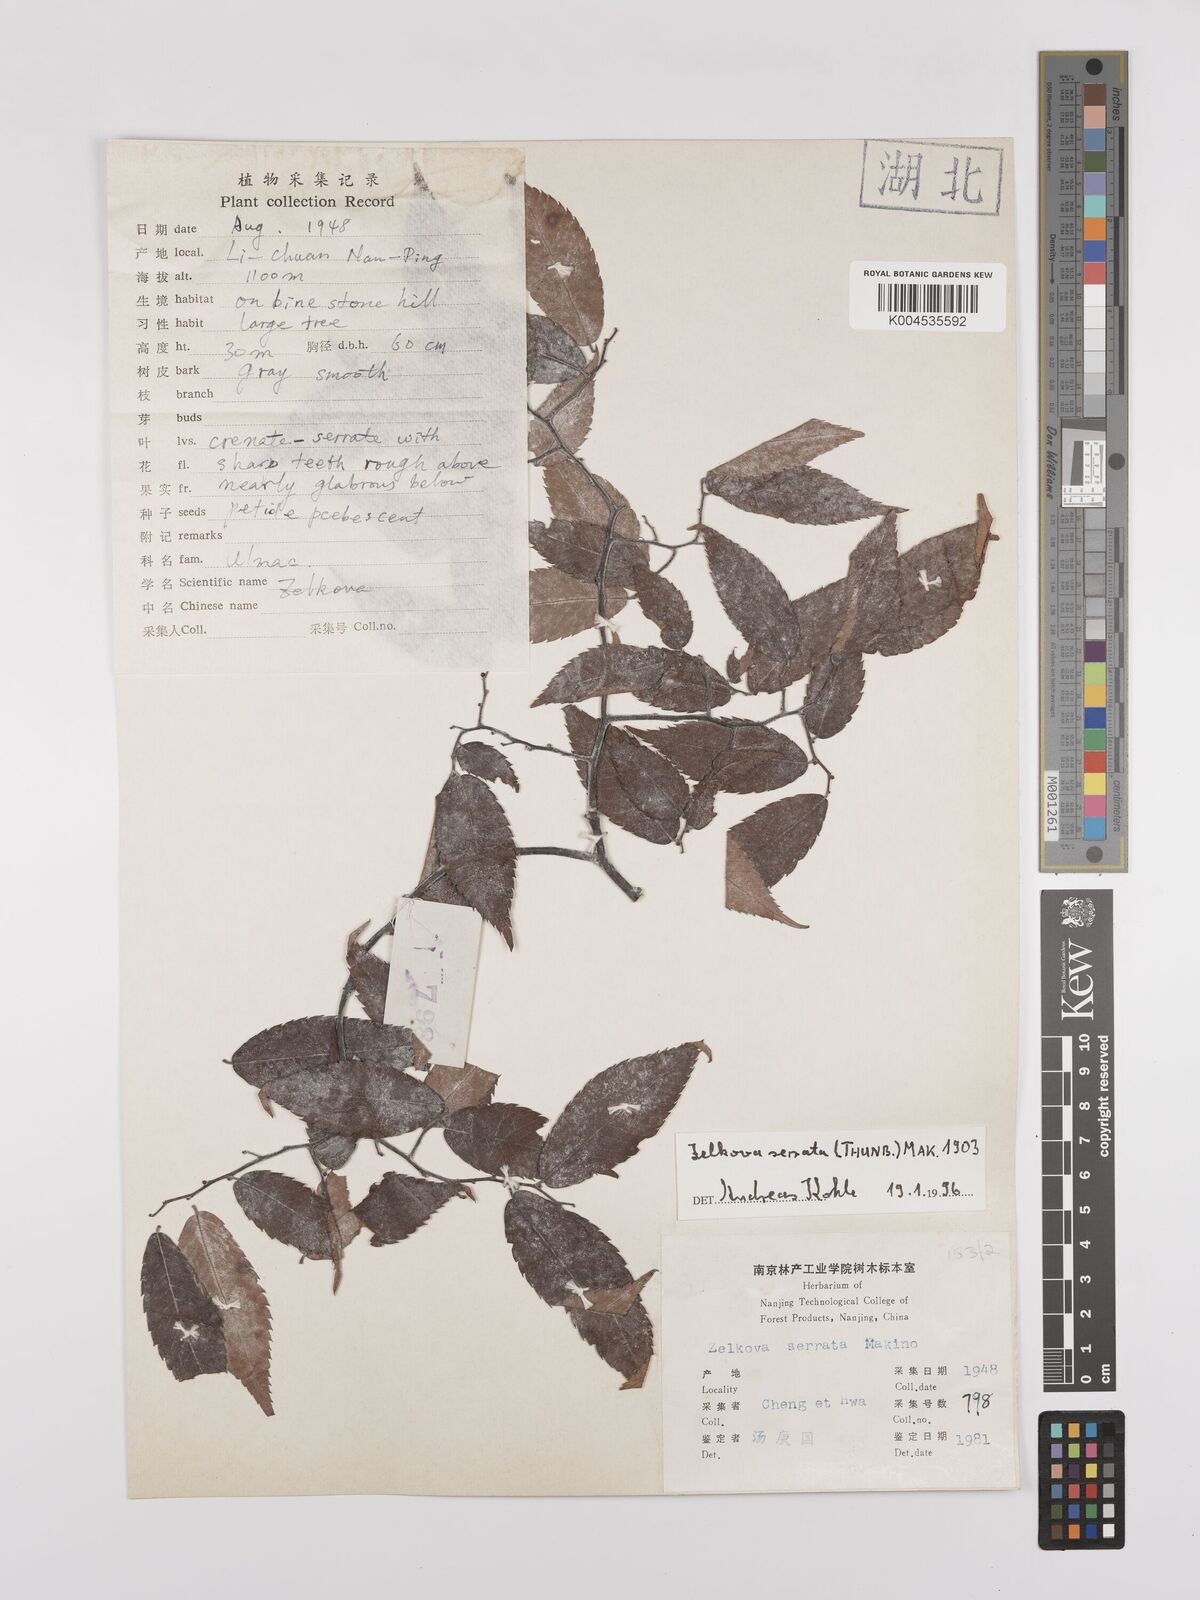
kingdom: Plantae
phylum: Tracheophyta
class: Magnoliopsida
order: Rosales
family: Ulmaceae
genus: Zelkova
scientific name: Zelkova serrata
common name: Japanese zelkova
